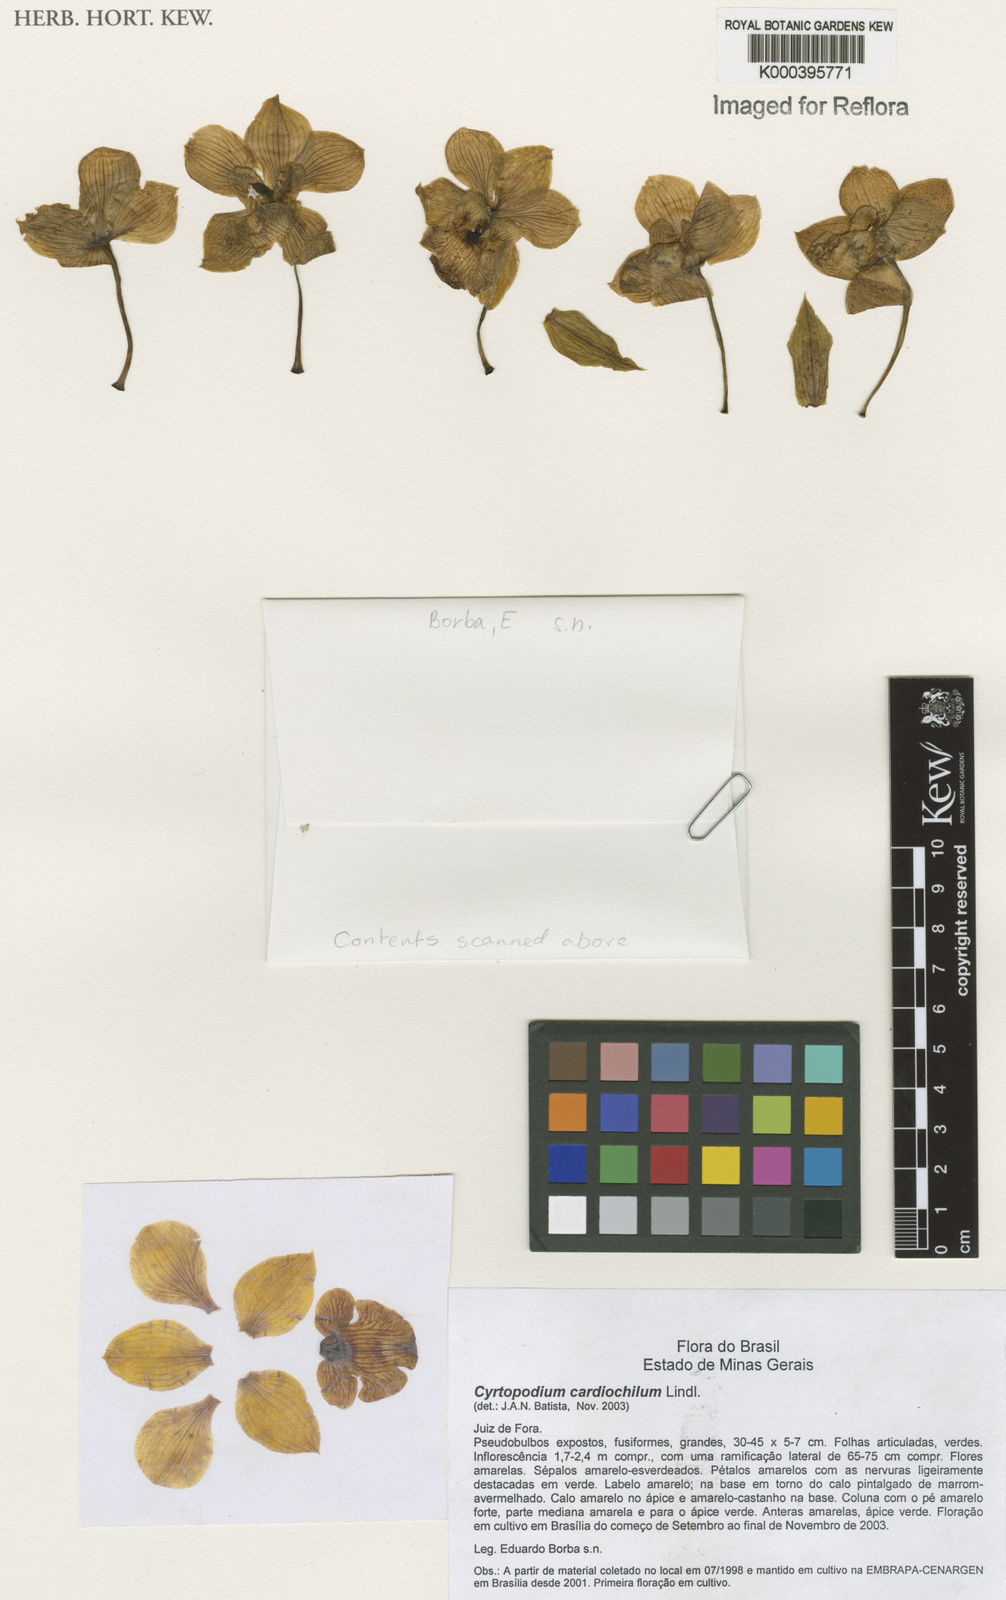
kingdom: Plantae
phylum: Tracheophyta
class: Liliopsida
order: Asparagales
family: Orchidaceae
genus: Cyrtopodium
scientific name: Cyrtopodium glutiniferum
